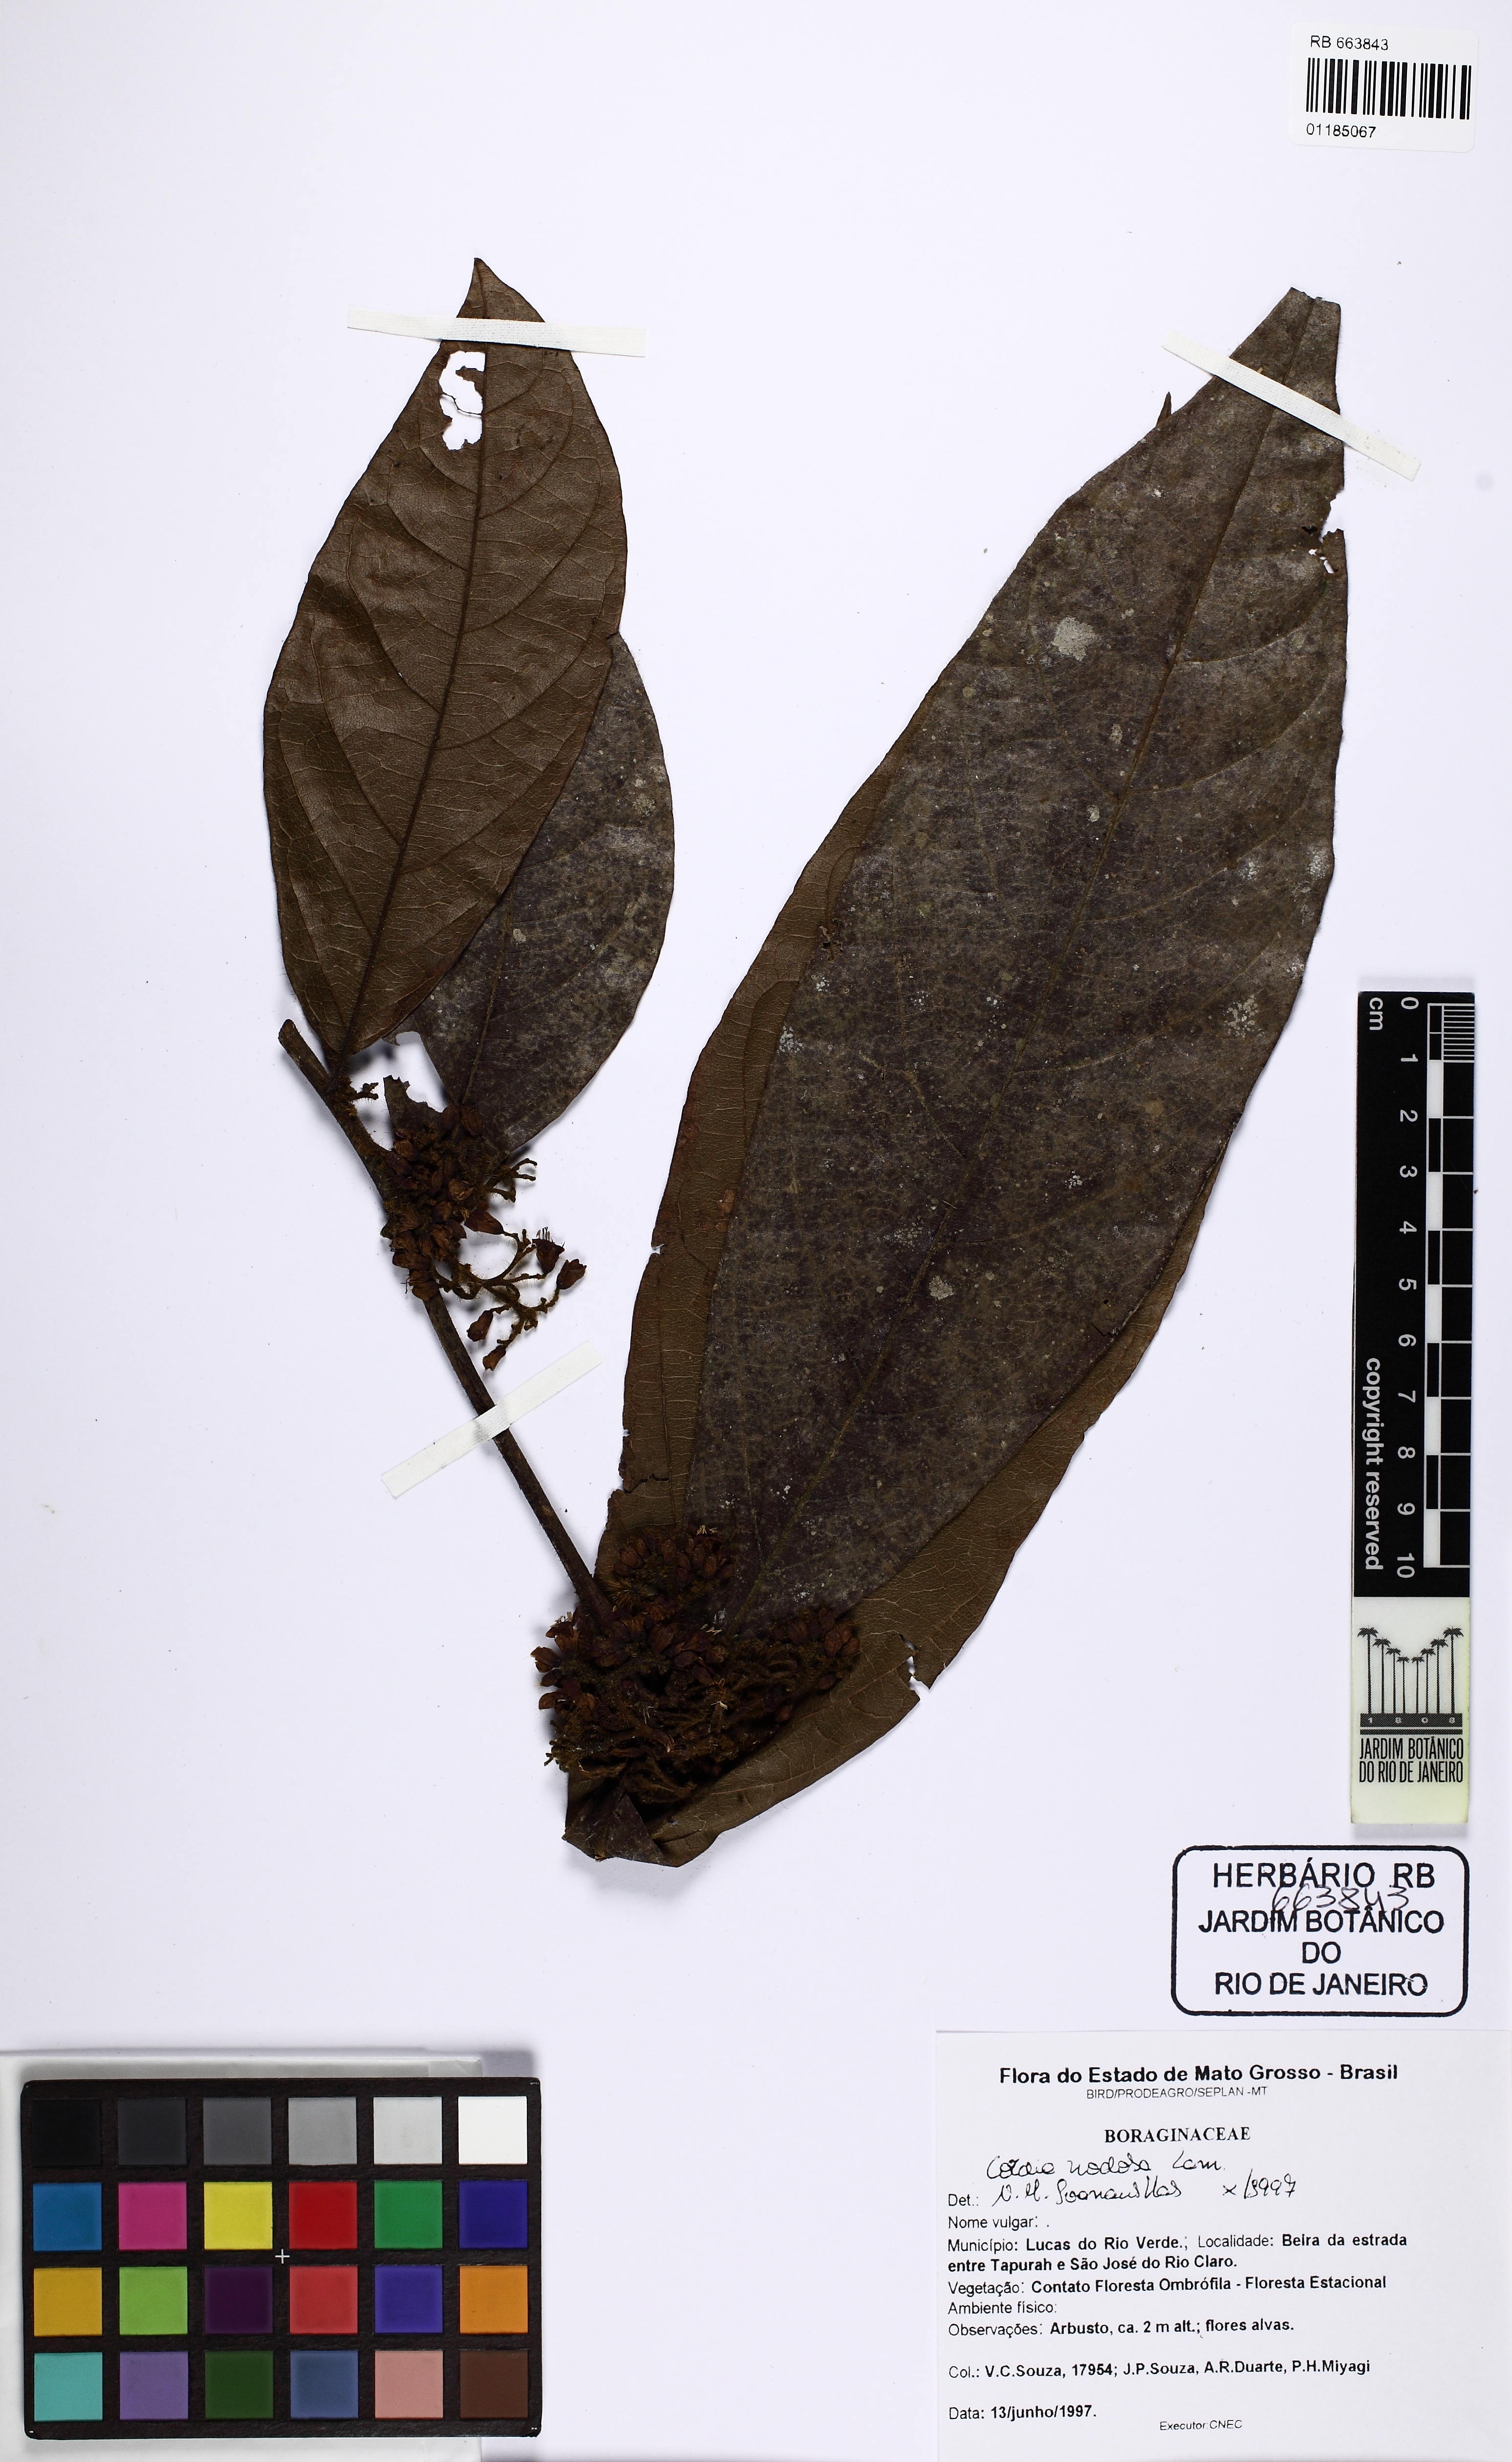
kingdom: Plantae
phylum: Tracheophyta
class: Magnoliopsida
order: Boraginales
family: Cordiaceae
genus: Cordia
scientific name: Cordia nodosa
